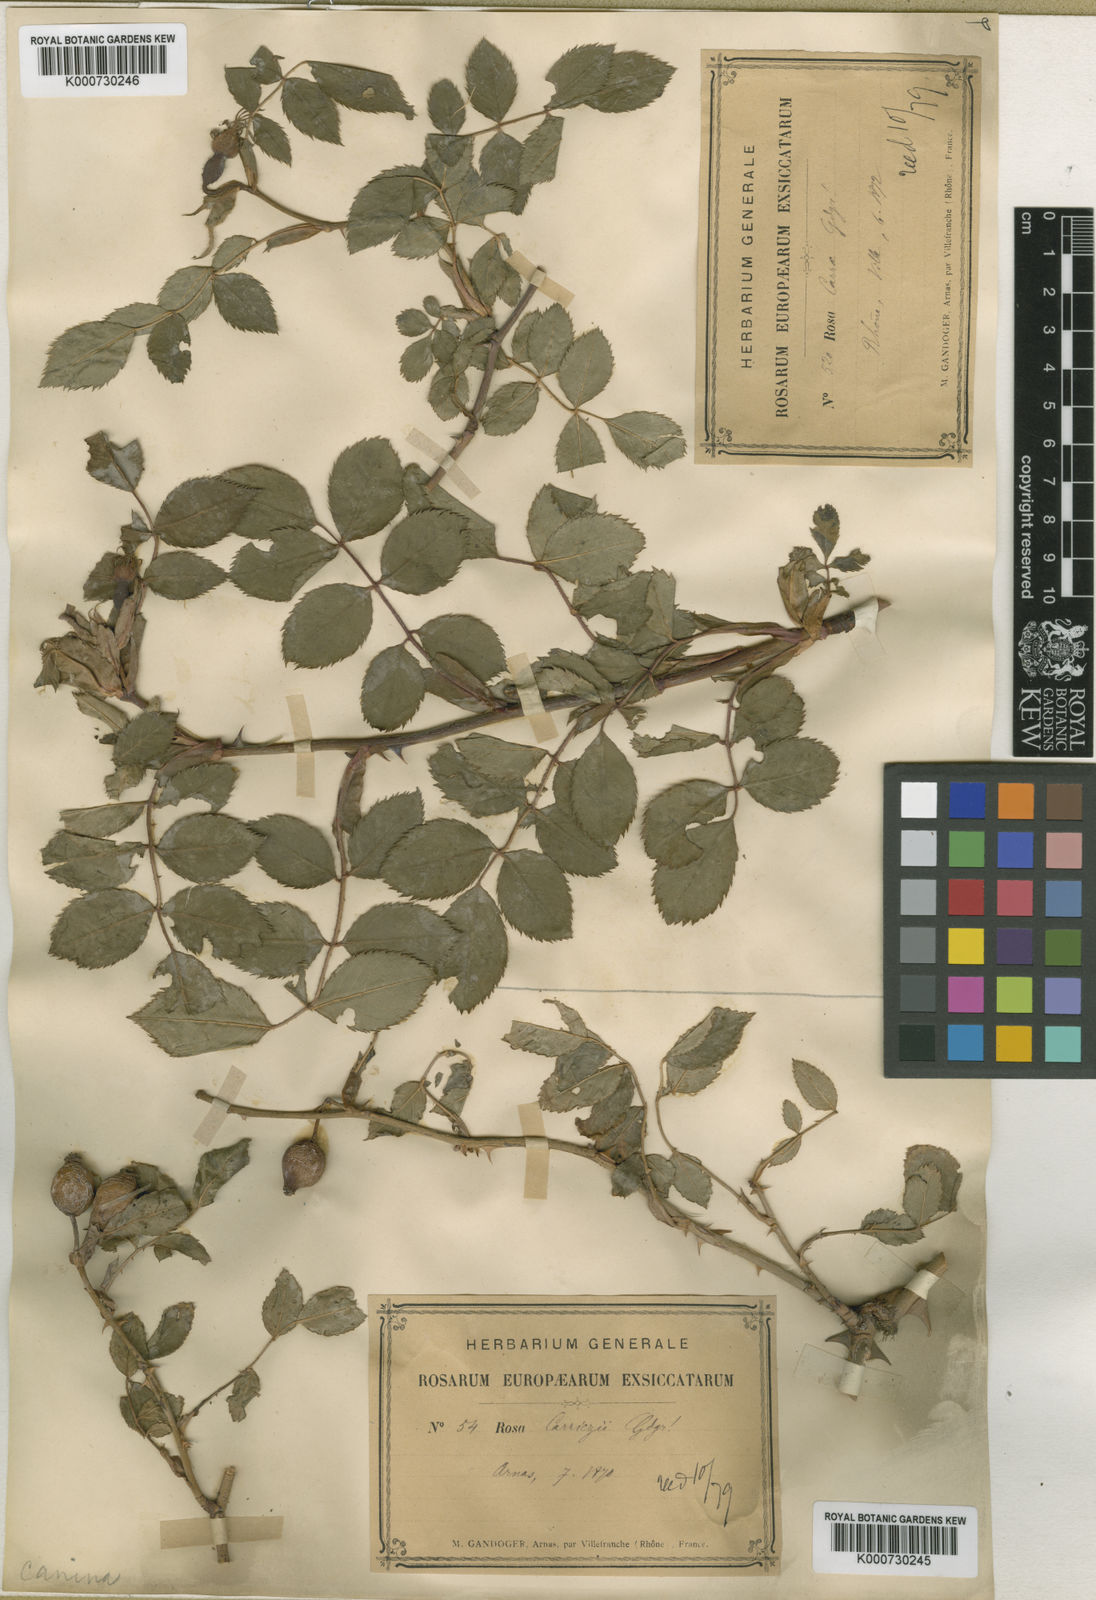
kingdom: Plantae
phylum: Tracheophyta
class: Magnoliopsida
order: Rosales
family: Rosaceae
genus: Rosa
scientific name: Rosa canina
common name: Dog rose
